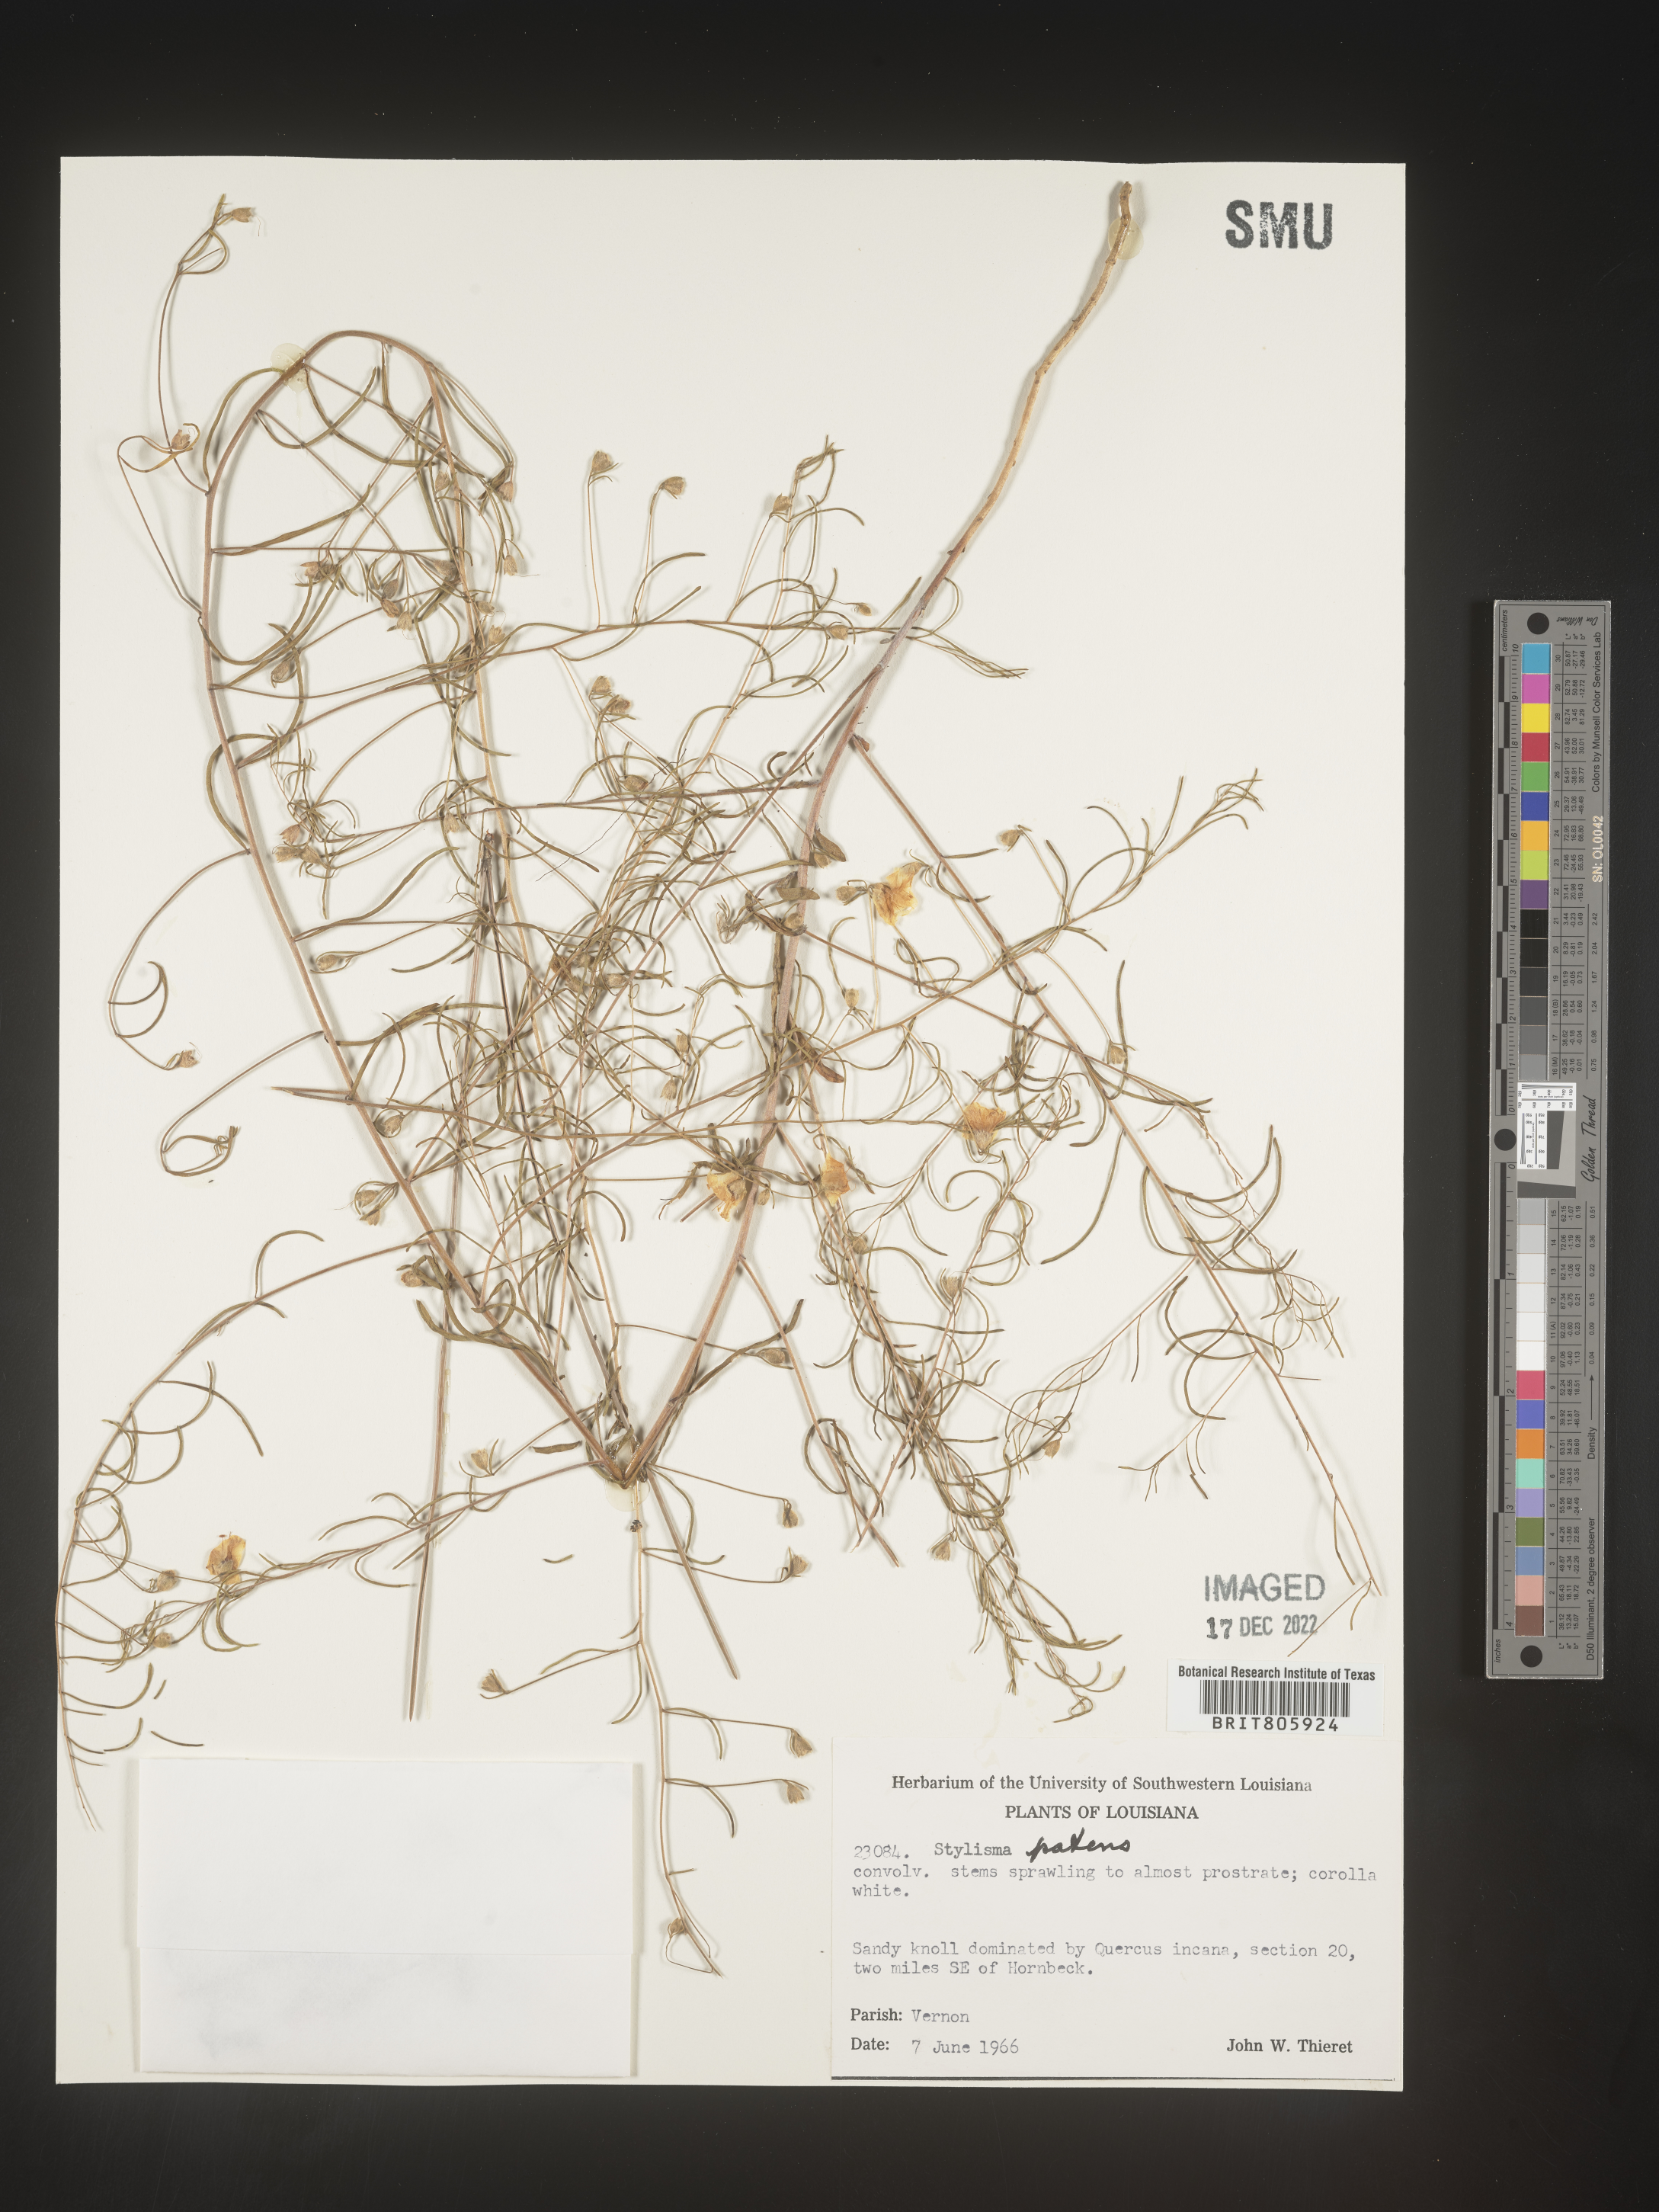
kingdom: Plantae
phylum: Tracheophyta
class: Magnoliopsida
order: Solanales
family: Convolvulaceae
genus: Stylisma
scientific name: Stylisma
